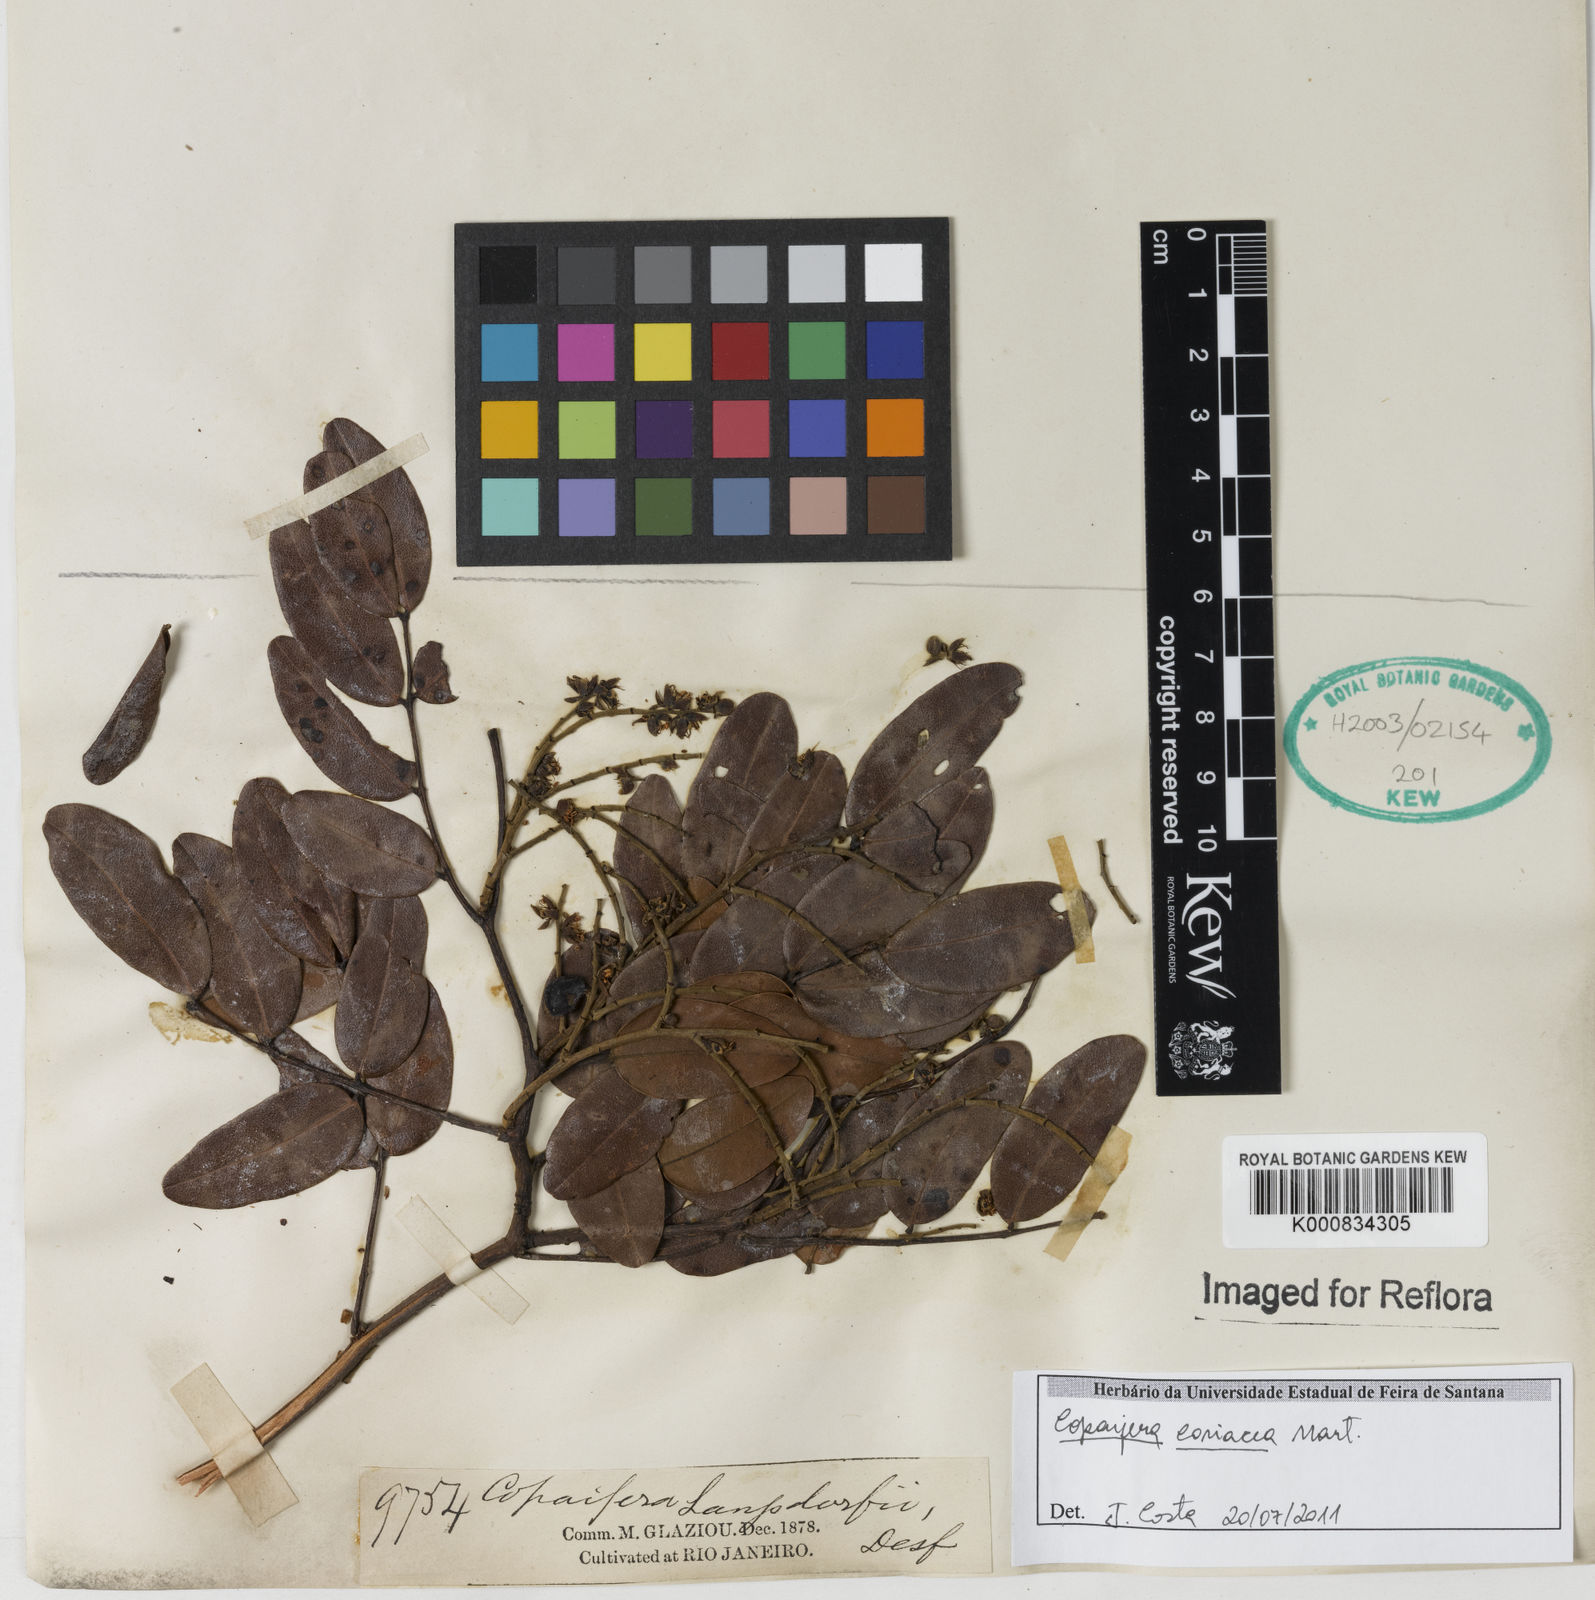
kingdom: Plantae
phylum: Tracheophyta
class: Magnoliopsida
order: Fabales
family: Fabaceae
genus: Copaifera
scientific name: Copaifera coriacea
